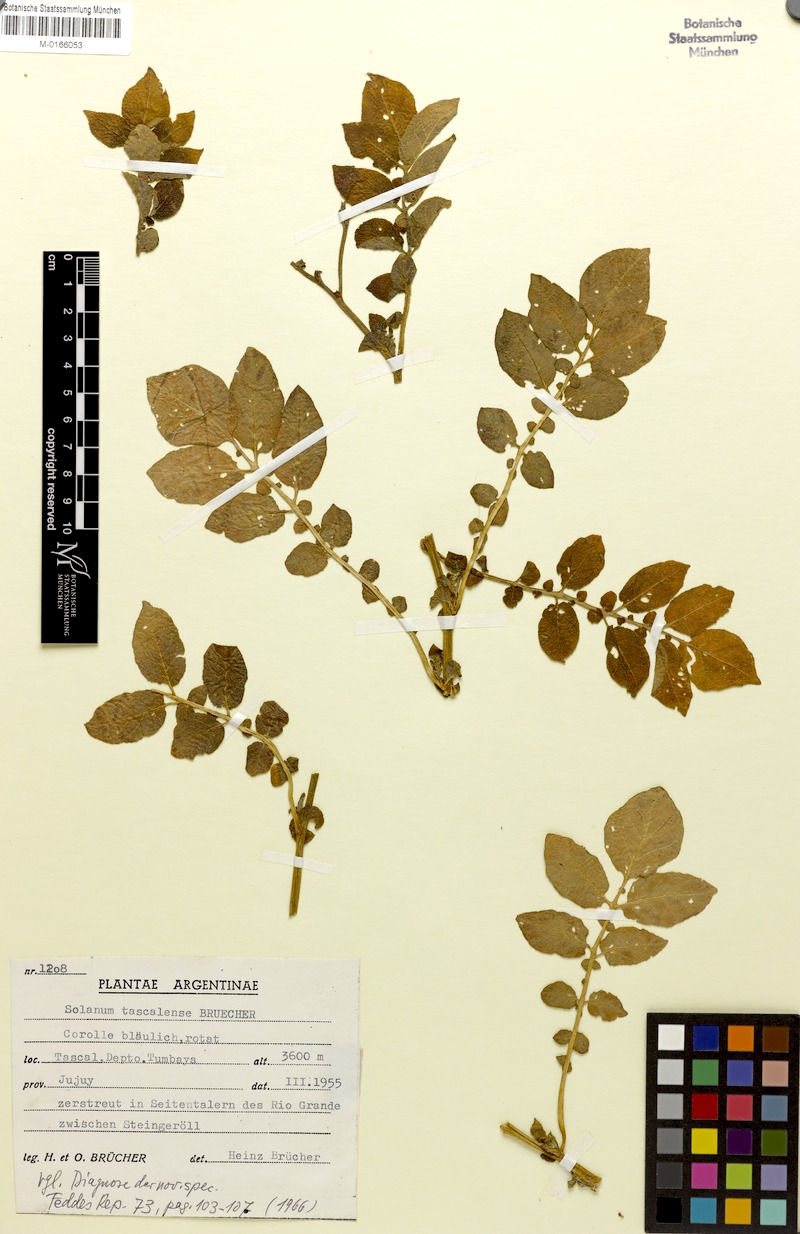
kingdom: Plantae
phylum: Tracheophyta
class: Magnoliopsida
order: Solanales
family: Solanaceae
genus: Solanum
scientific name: Solanum tuberosum
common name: Potato
